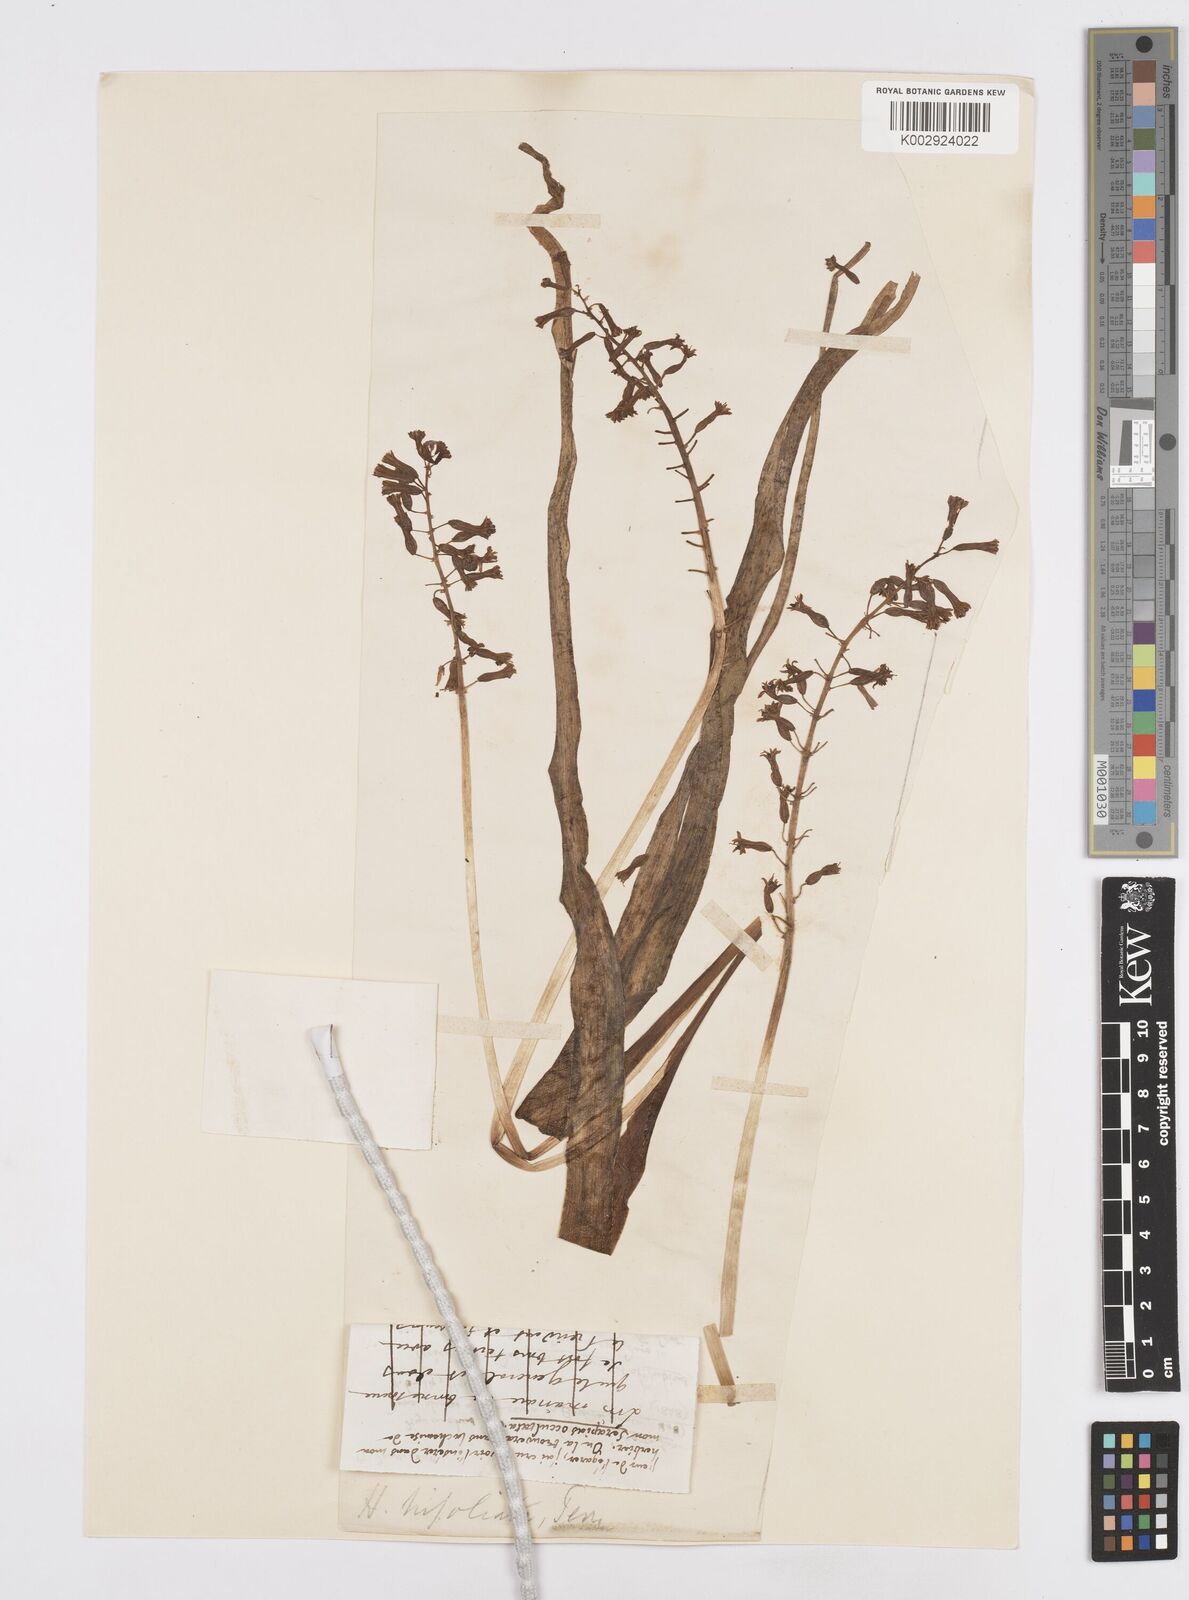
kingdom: Plantae
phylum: Tracheophyta
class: Liliopsida
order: Asparagales
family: Asparagaceae
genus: Bellevalia
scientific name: Bellevalia trifoliata
